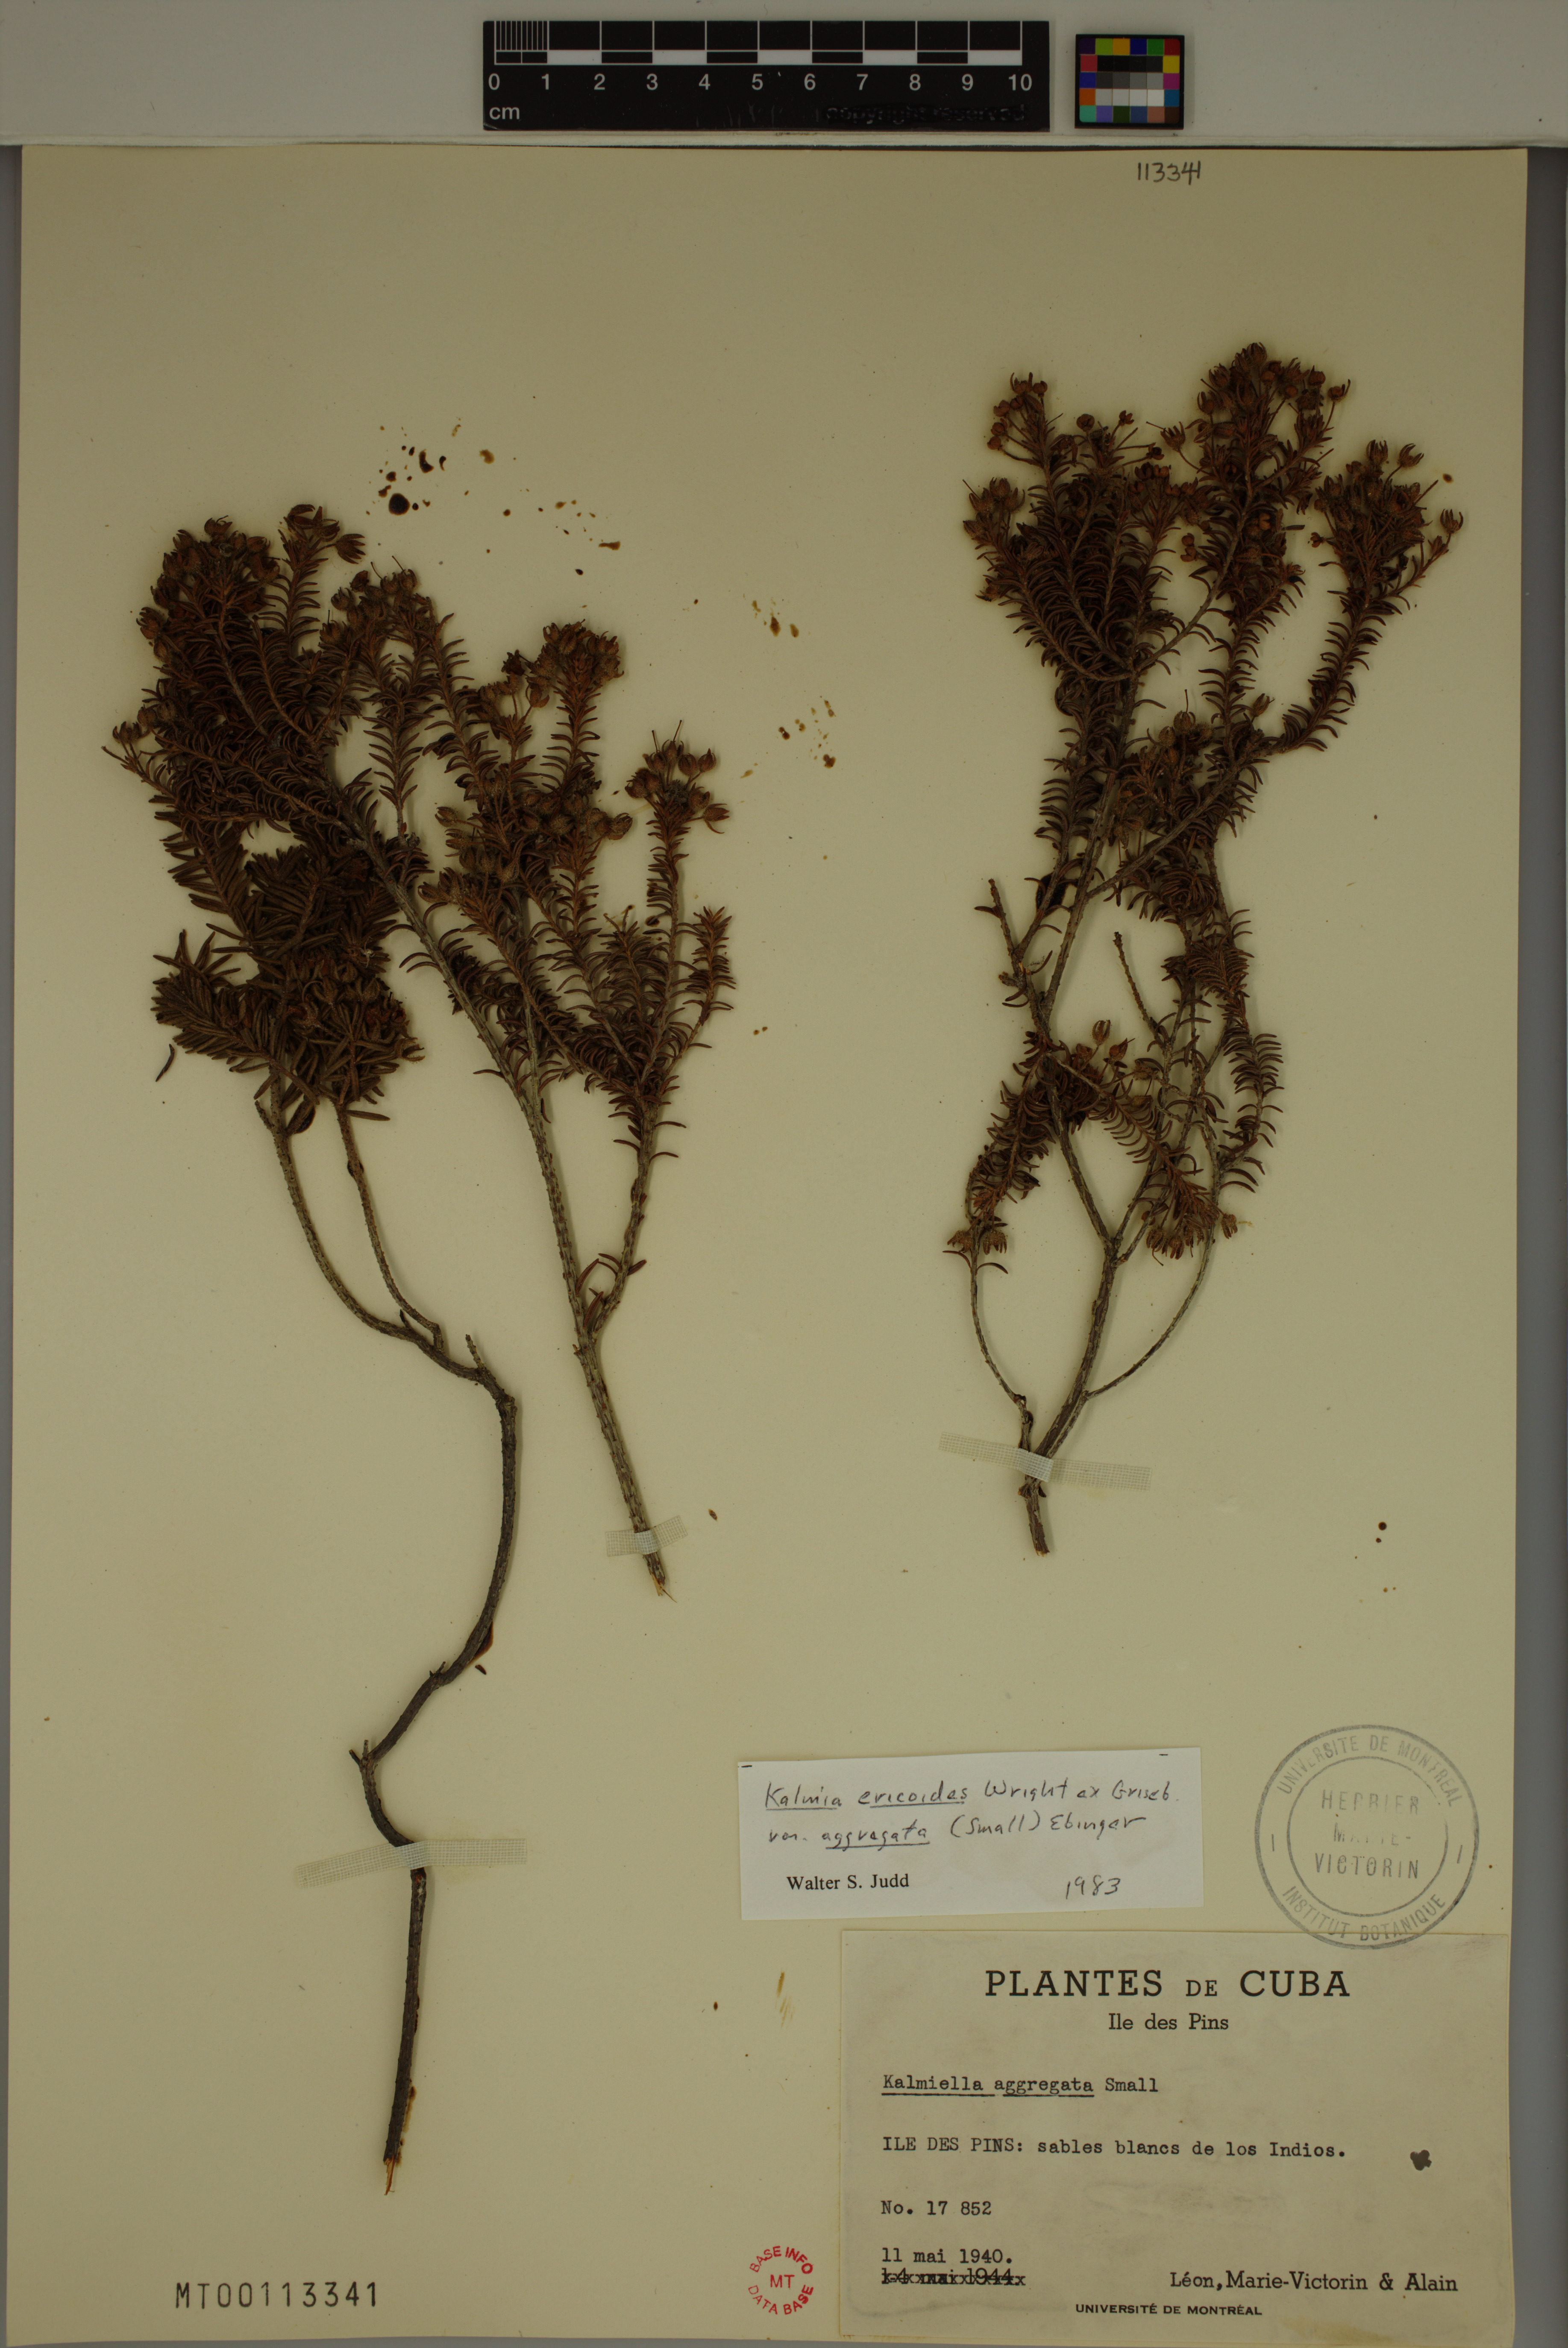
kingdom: Plantae
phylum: Tracheophyta
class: Magnoliopsida
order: Ericales
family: Ericaceae
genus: Kalmia
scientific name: Kalmia ericoides
